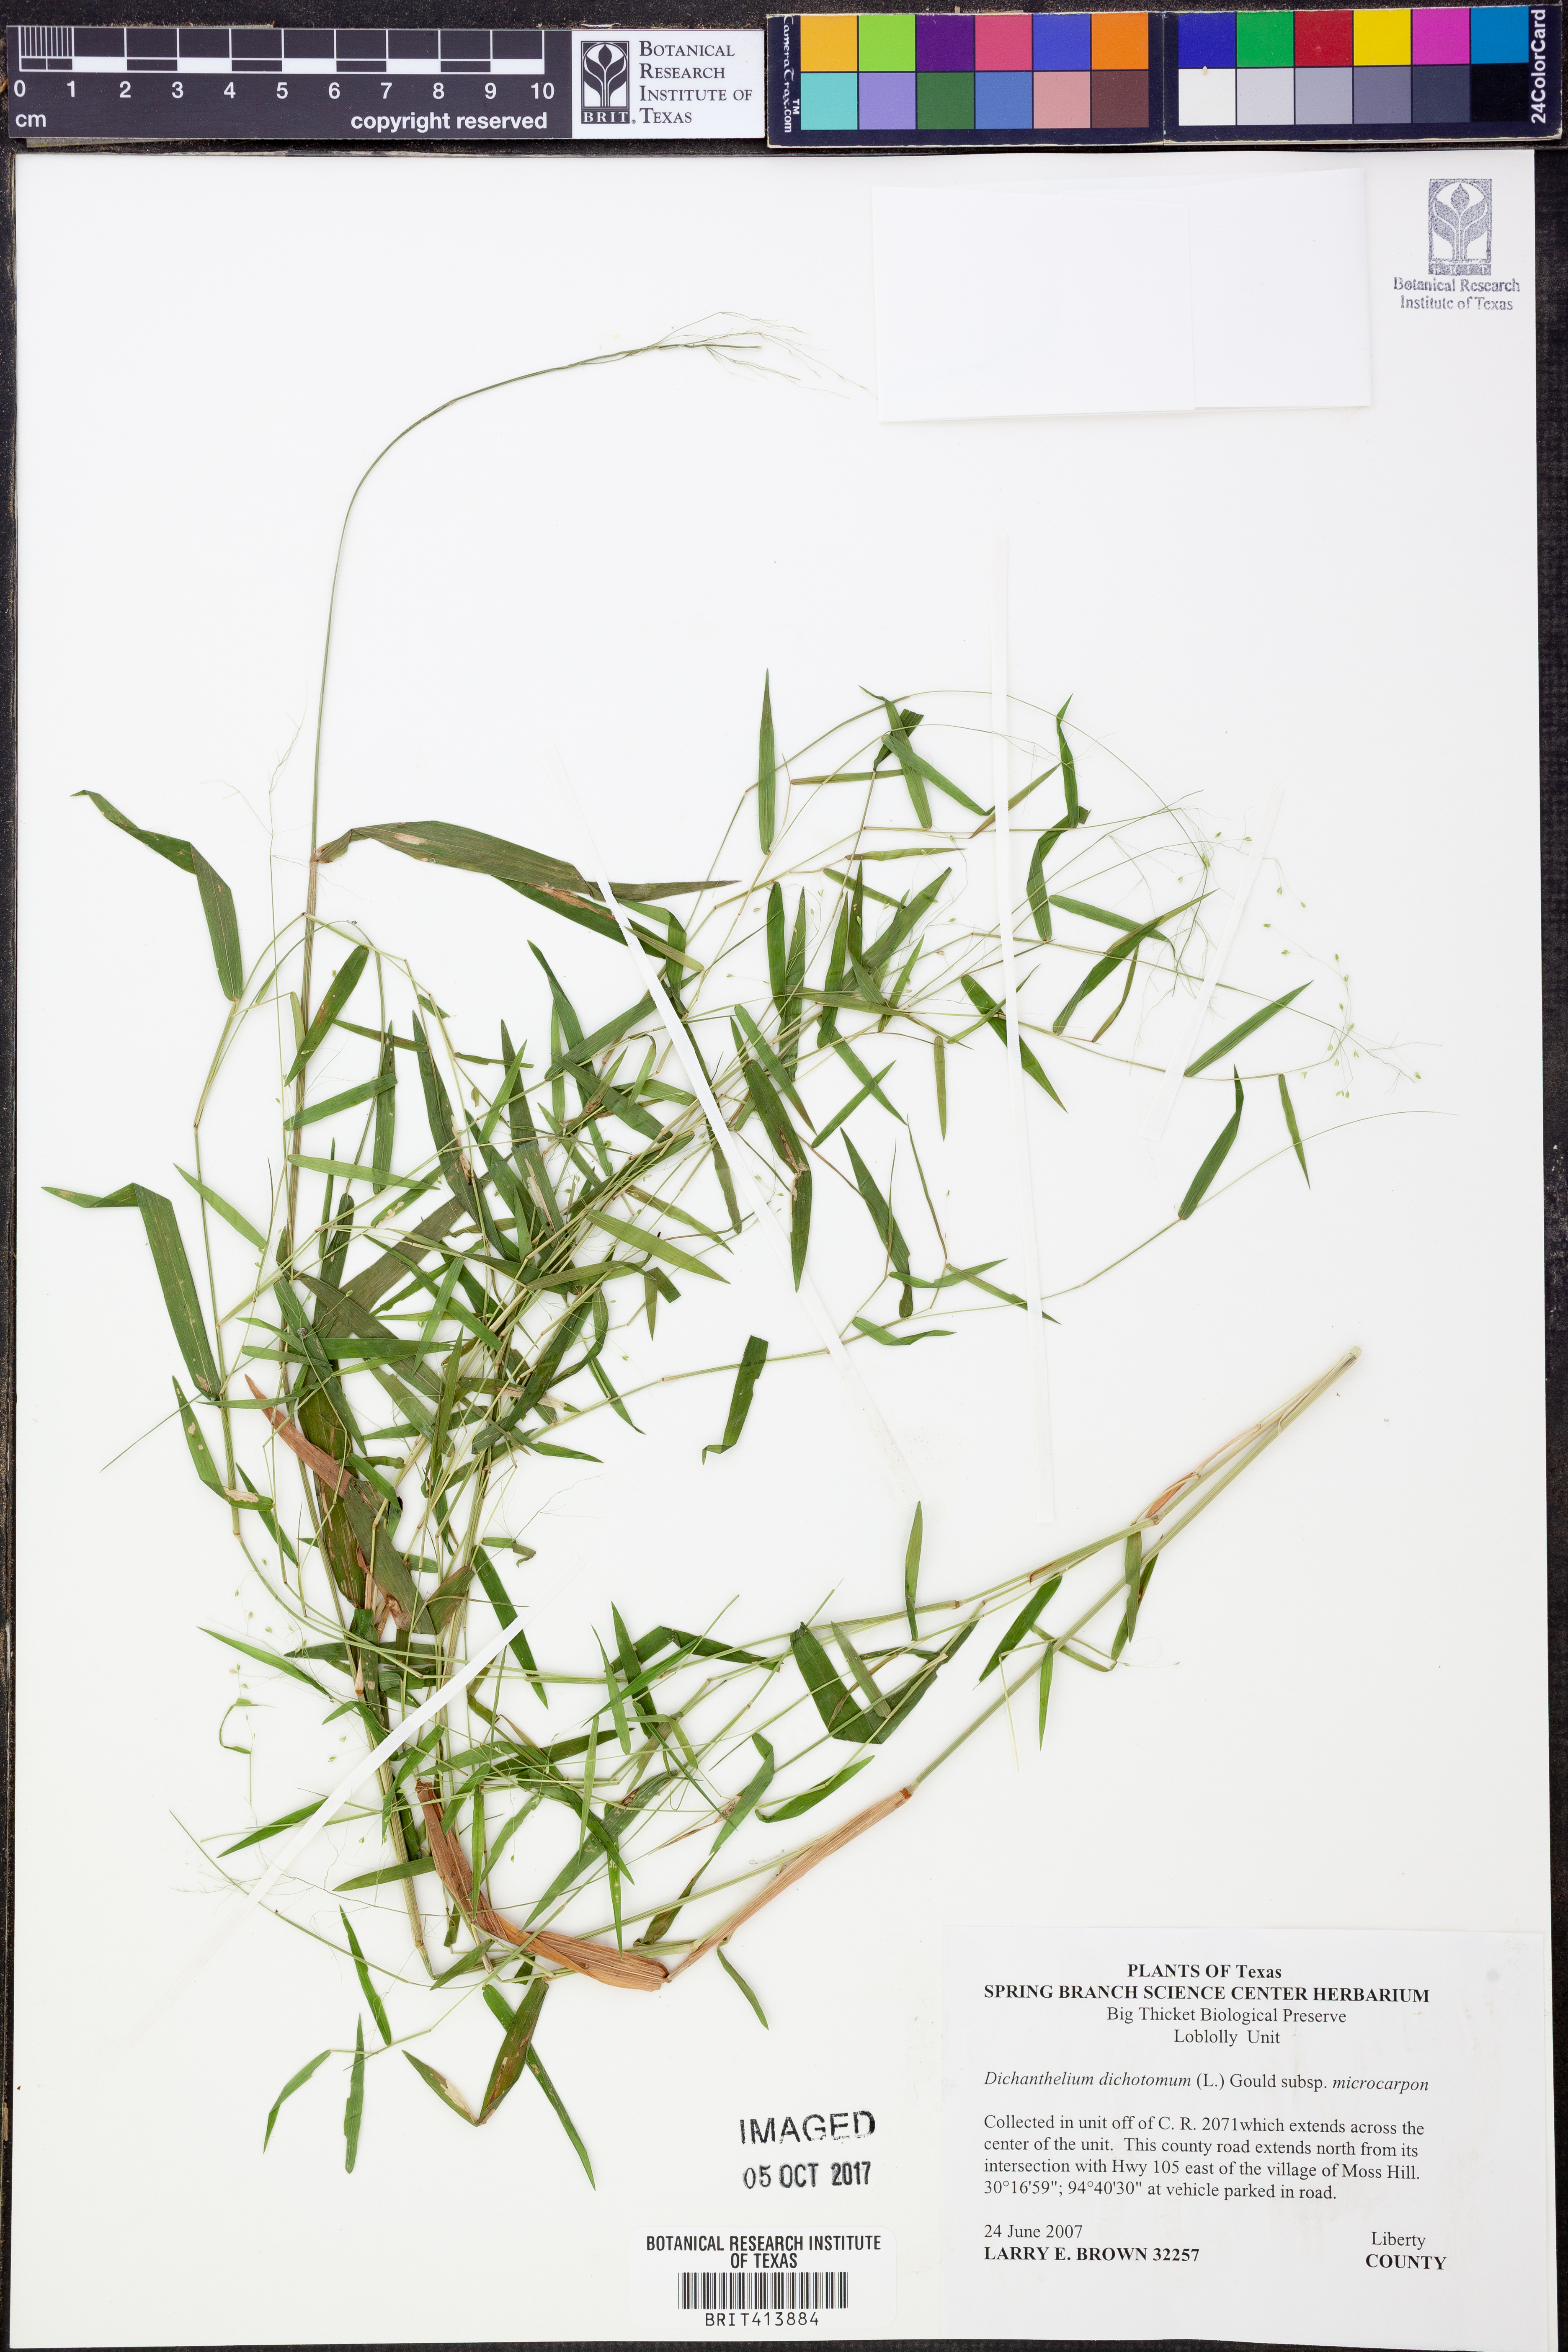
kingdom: Plantae
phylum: Tracheophyta
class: Liliopsida
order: Poales
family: Poaceae
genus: Dichanthelium
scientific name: Dichanthelium dichotomum
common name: Cypress panicgrass
